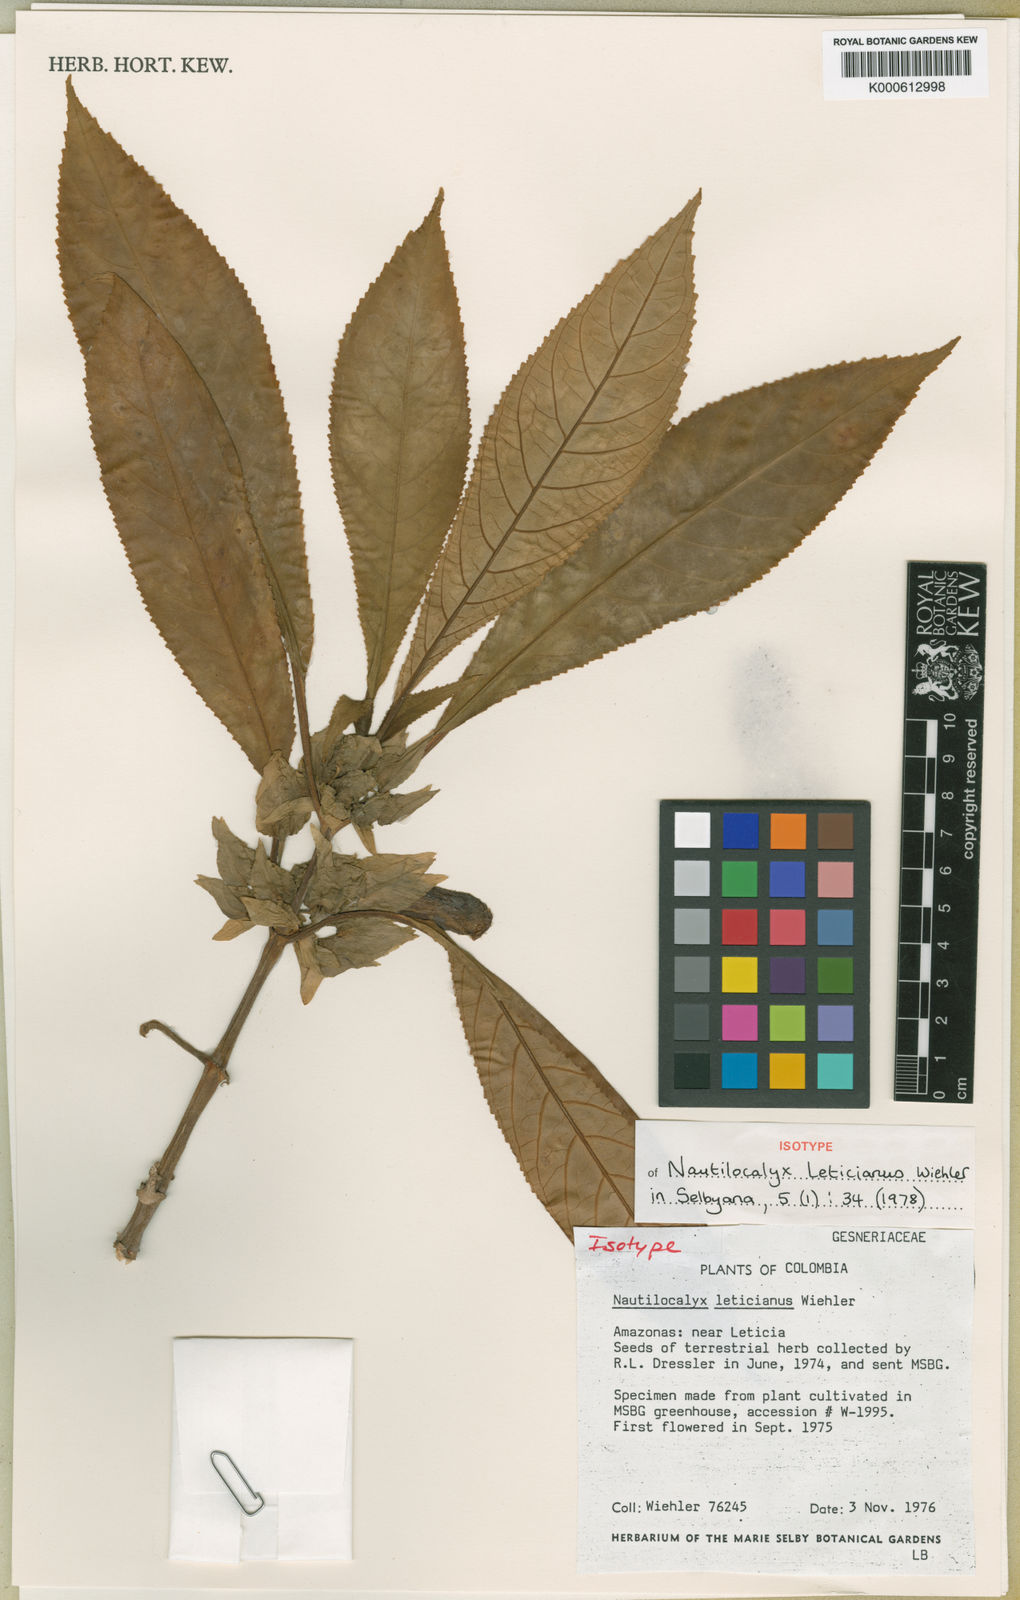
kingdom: Plantae
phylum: Tracheophyta
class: Magnoliopsida
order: Lamiales
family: Gesneriaceae
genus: Nautilocalyx
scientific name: Nautilocalyx leticianus
